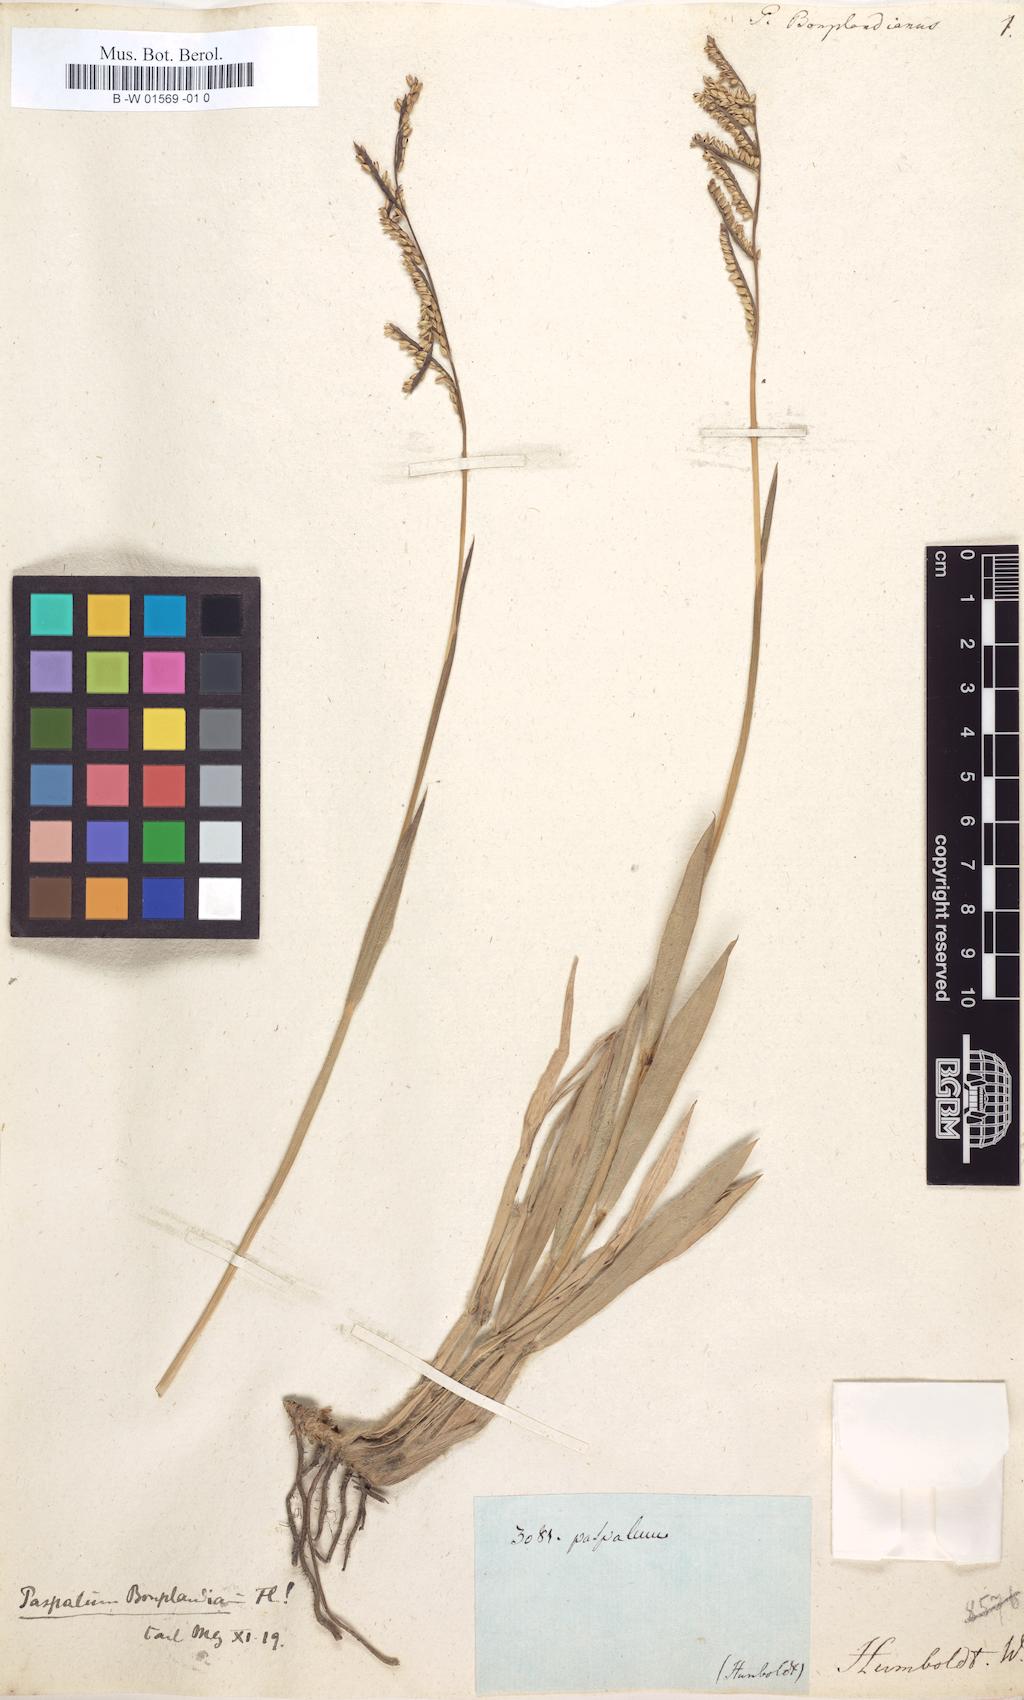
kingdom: Plantae
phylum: Tracheophyta
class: Liliopsida
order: Poales
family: Poaceae
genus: Paspalum
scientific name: Paspalum bonplandianum
